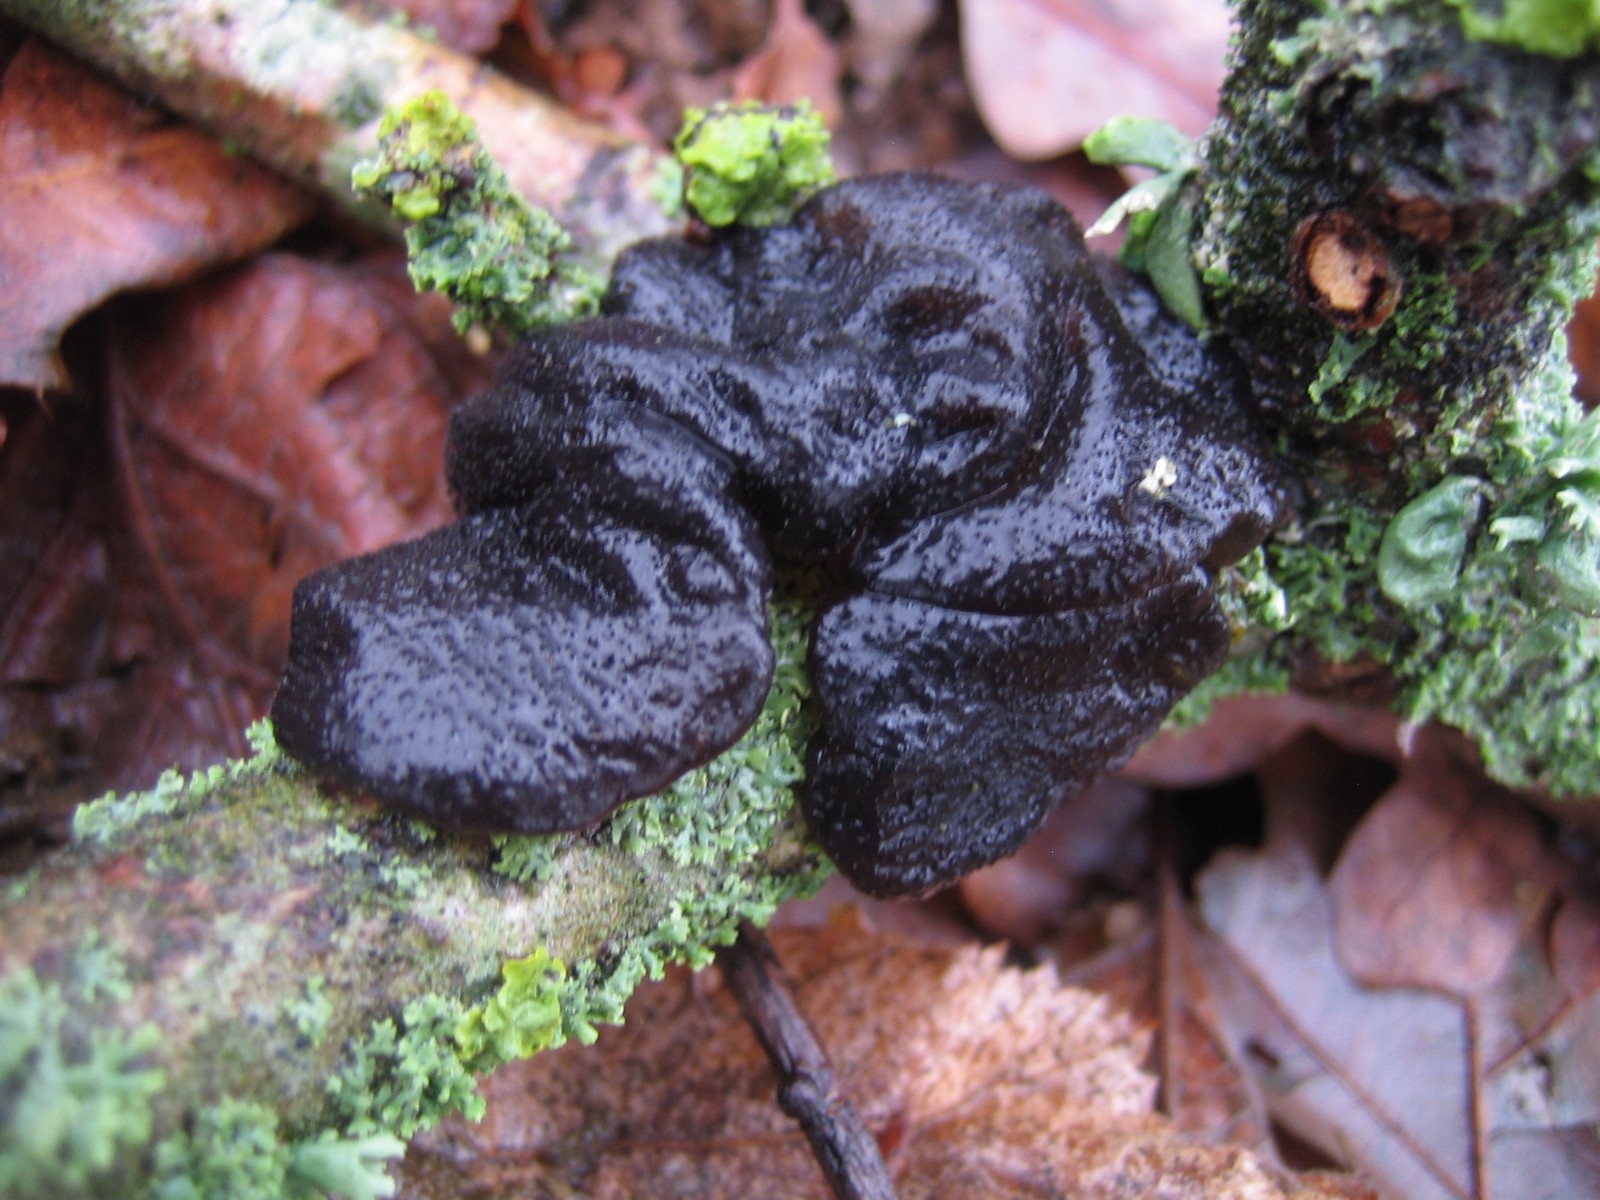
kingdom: Fungi
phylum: Basidiomycota
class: Agaricomycetes
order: Auriculariales
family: Auriculariaceae
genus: Exidia
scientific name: Exidia glandulosa
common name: ege-bævretop
